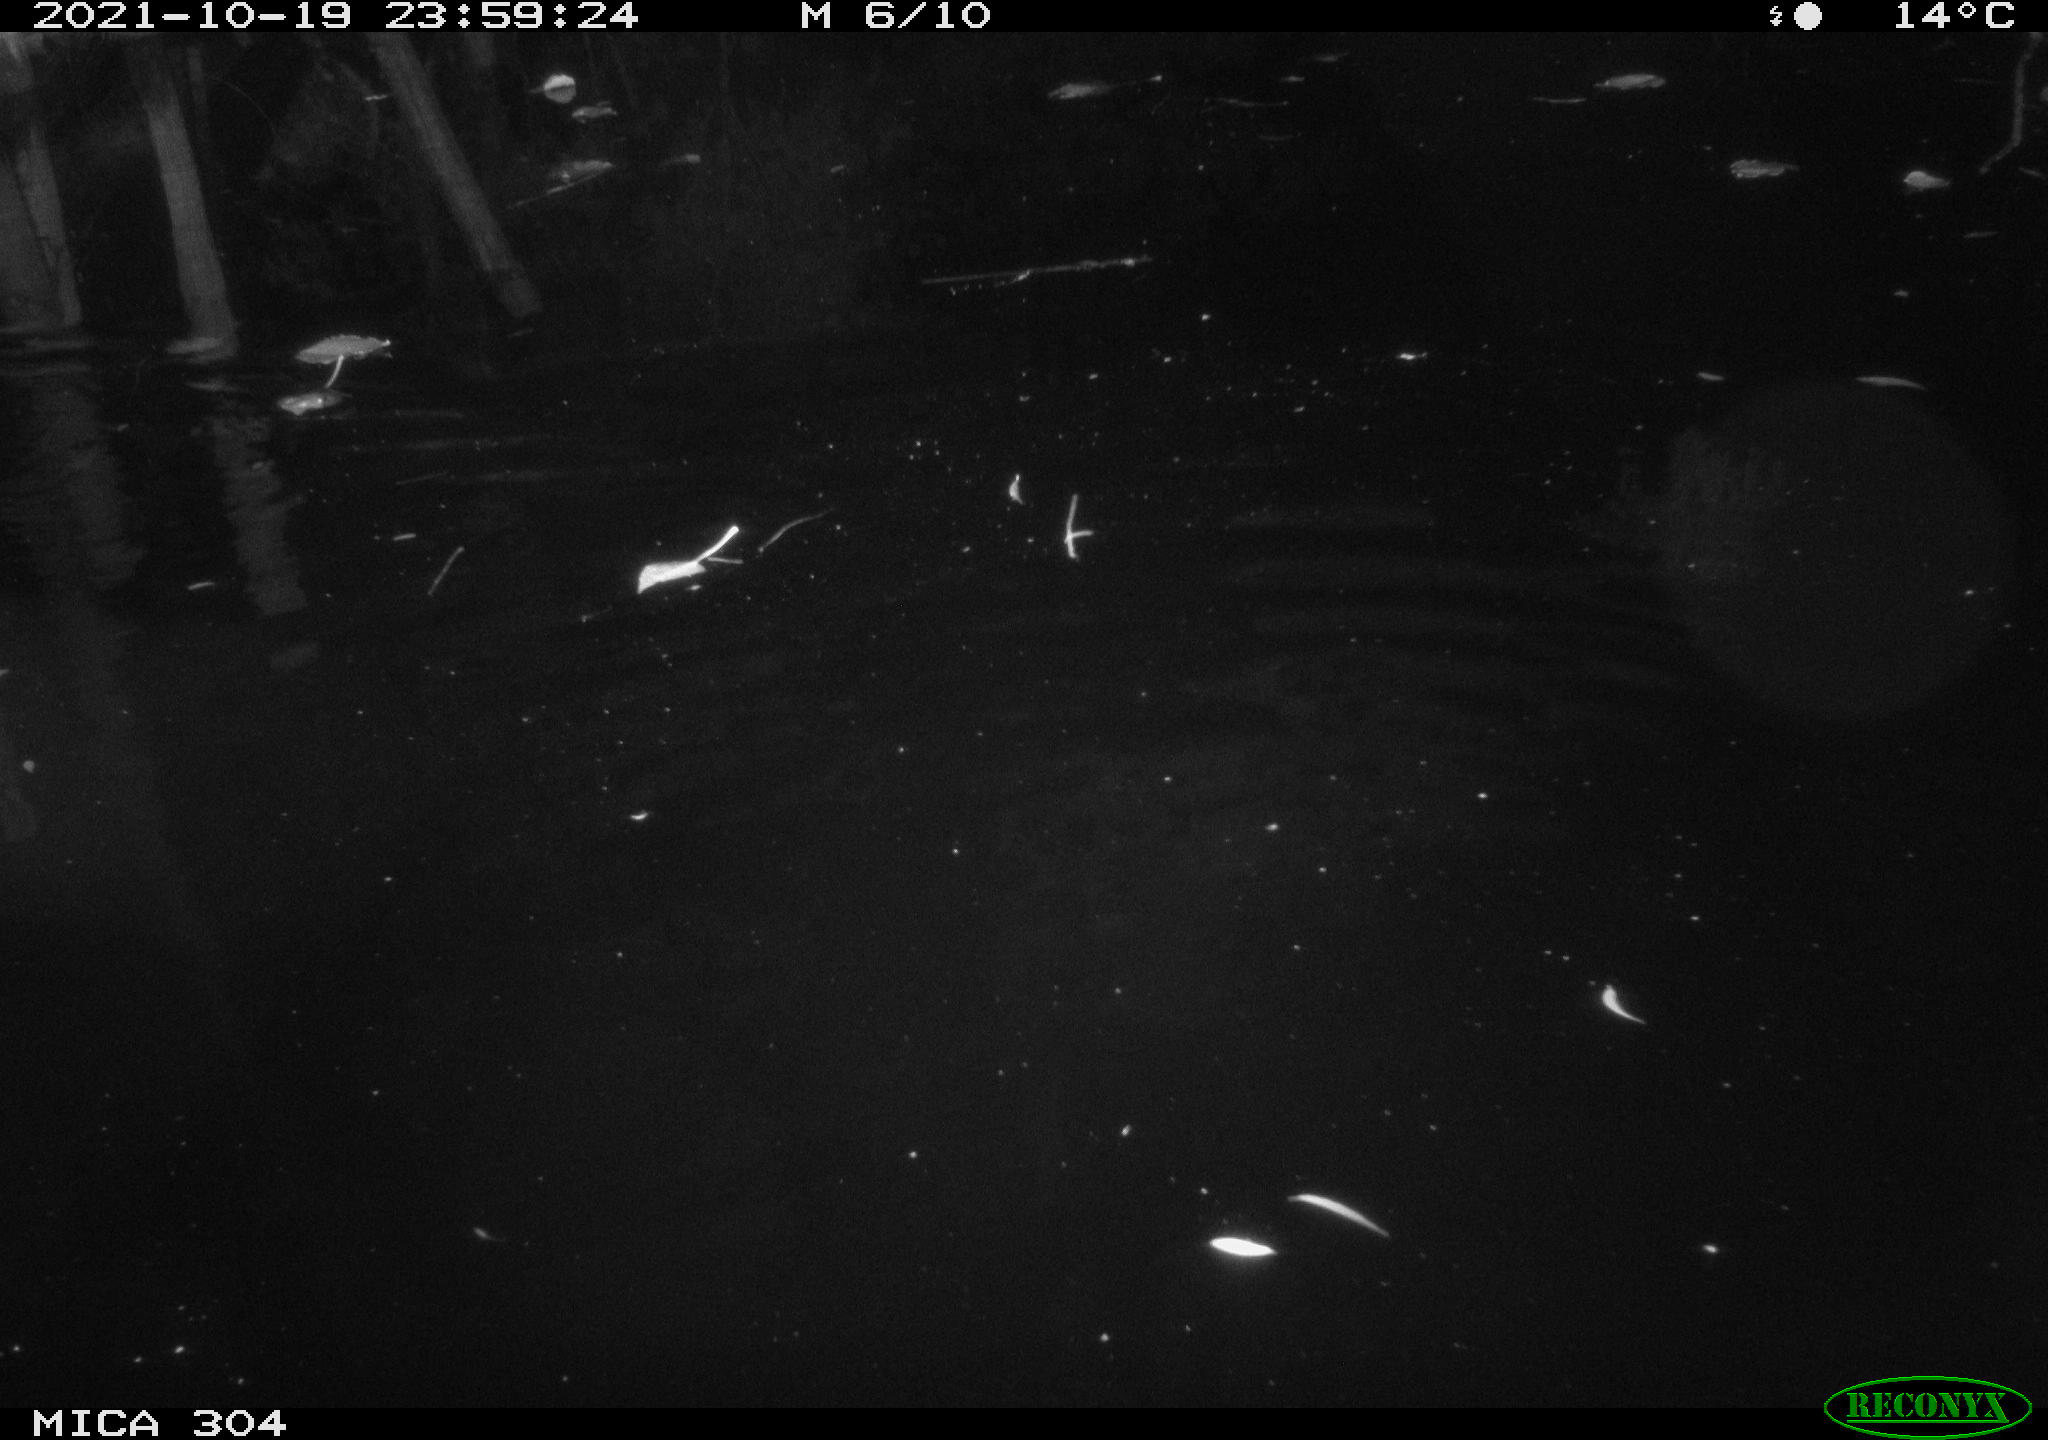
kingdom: Animalia
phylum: Chordata
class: Mammalia
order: Rodentia
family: Muridae
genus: Rattus
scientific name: Rattus norvegicus
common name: Brown rat
